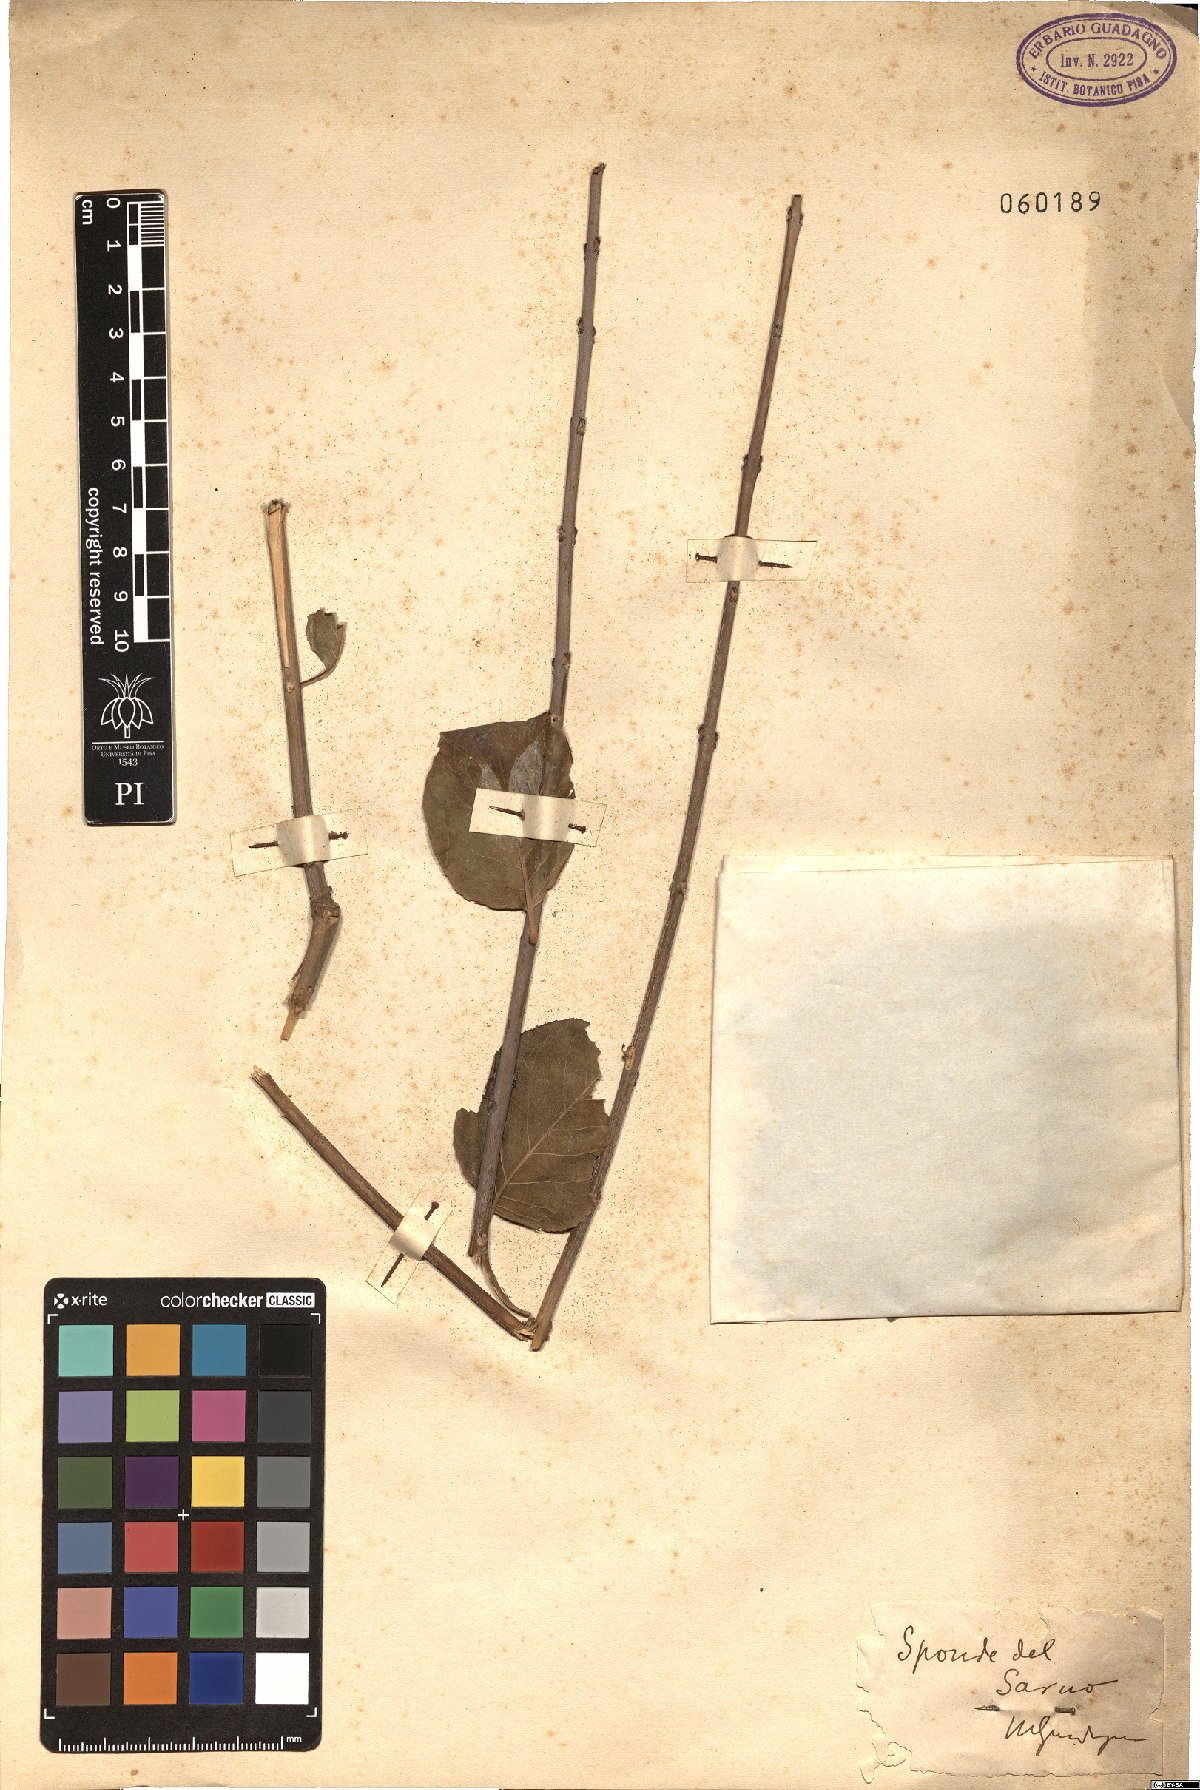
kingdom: Plantae
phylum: Tracheophyta
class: Magnoliopsida
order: Malpighiales
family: Salicaceae
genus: Salix
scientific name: Salix caprea
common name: Goat willow
